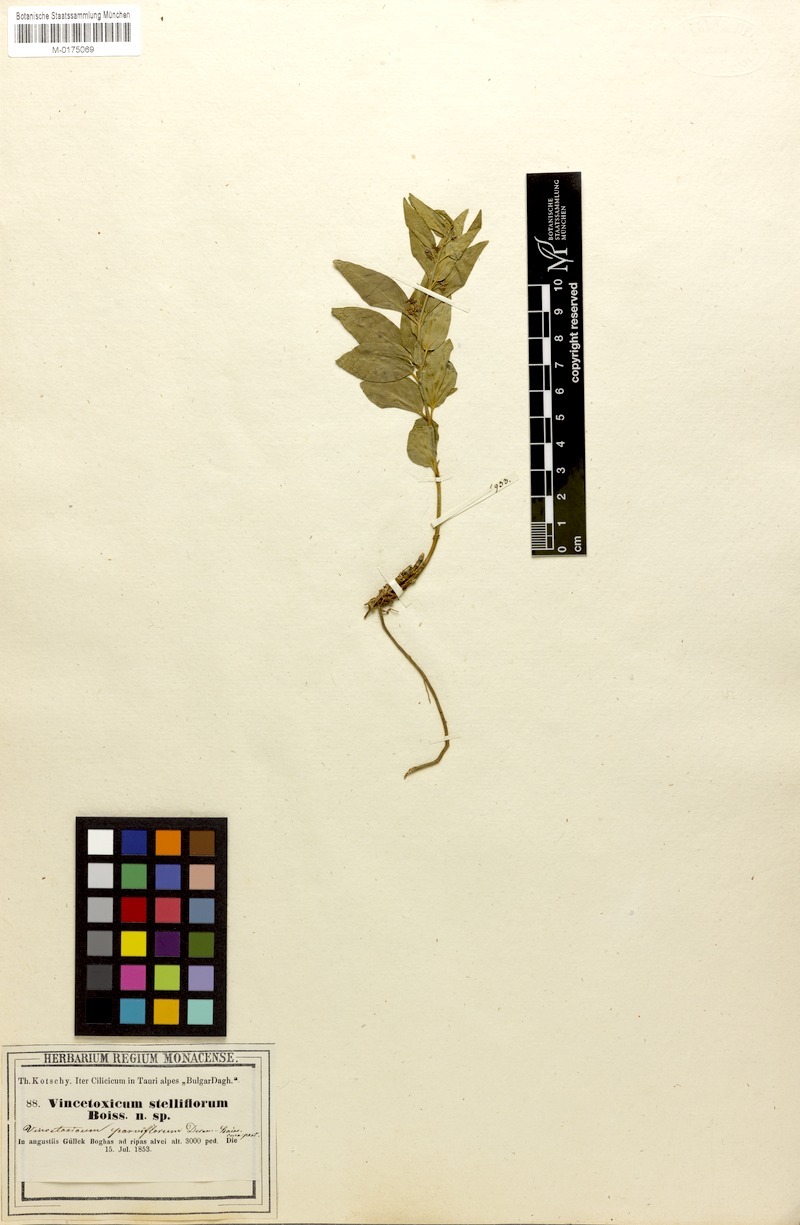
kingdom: Plantae
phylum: Tracheophyta
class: Magnoliopsida
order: Gentianales
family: Apocynaceae
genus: Vincetoxicum
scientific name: Vincetoxicum parviflorum
